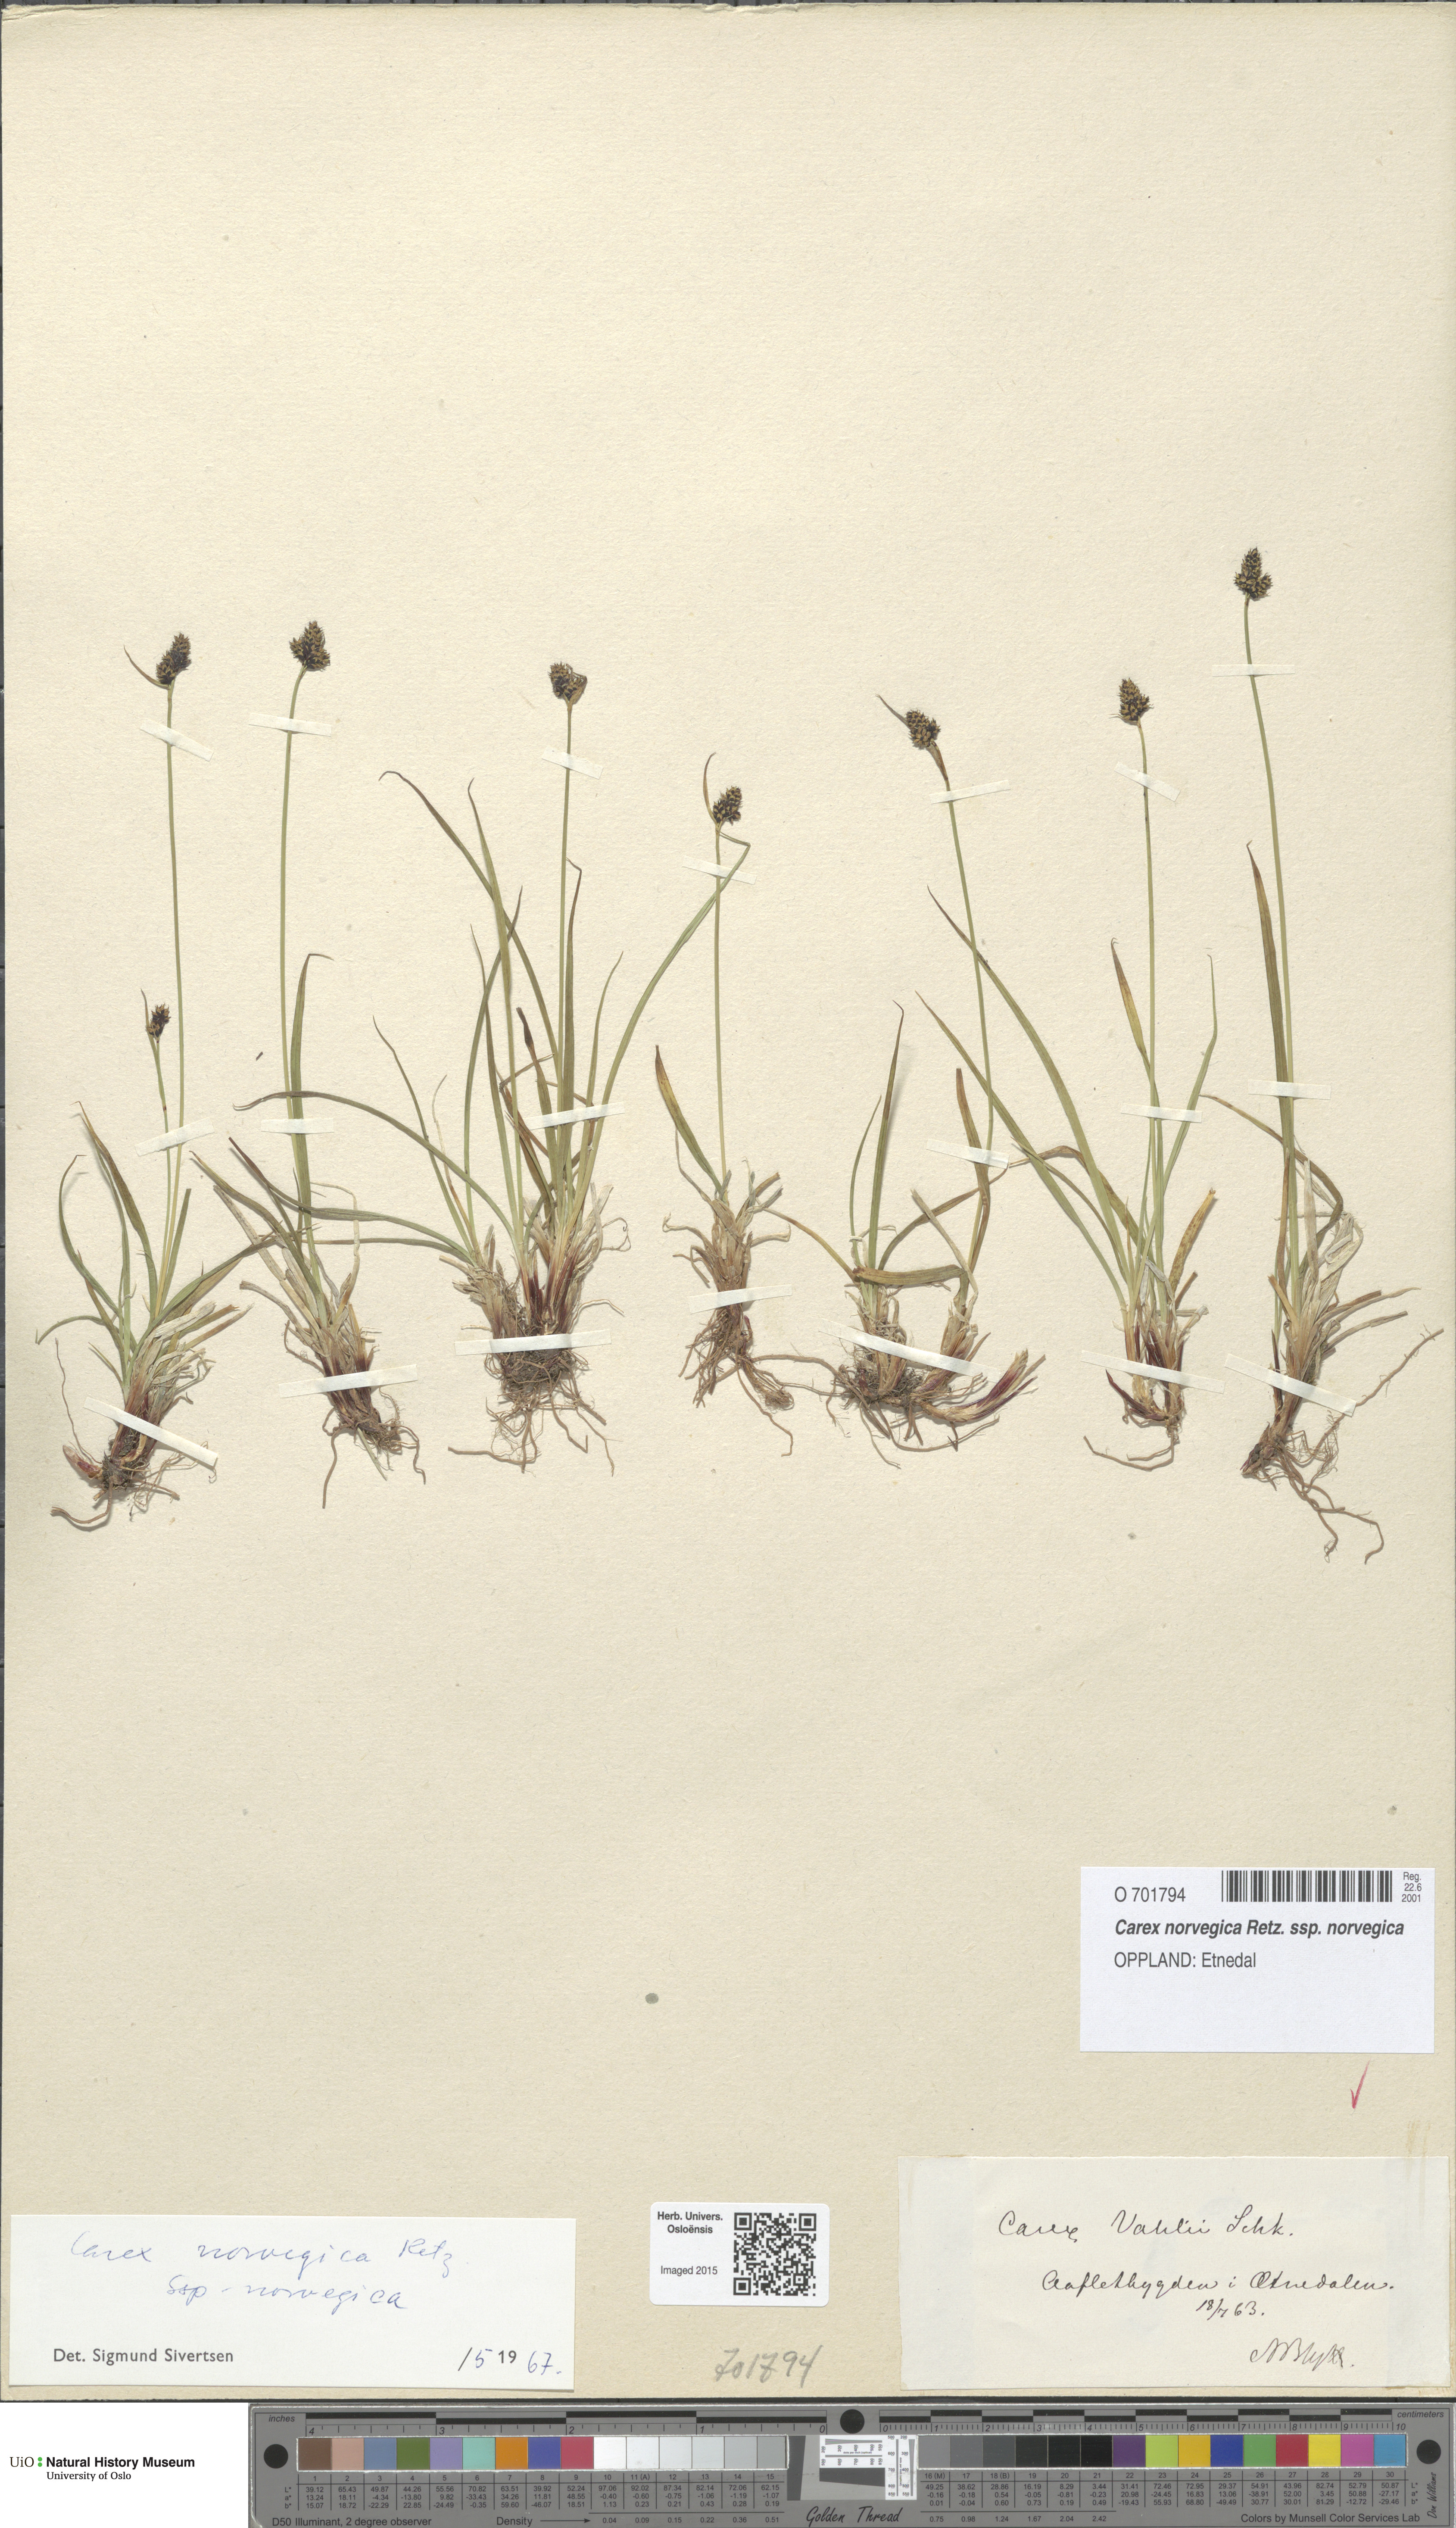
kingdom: Plantae
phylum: Tracheophyta
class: Liliopsida
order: Poales
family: Cyperaceae
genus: Carex
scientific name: Carex norvegica
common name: Close-headed alpine-sedge
